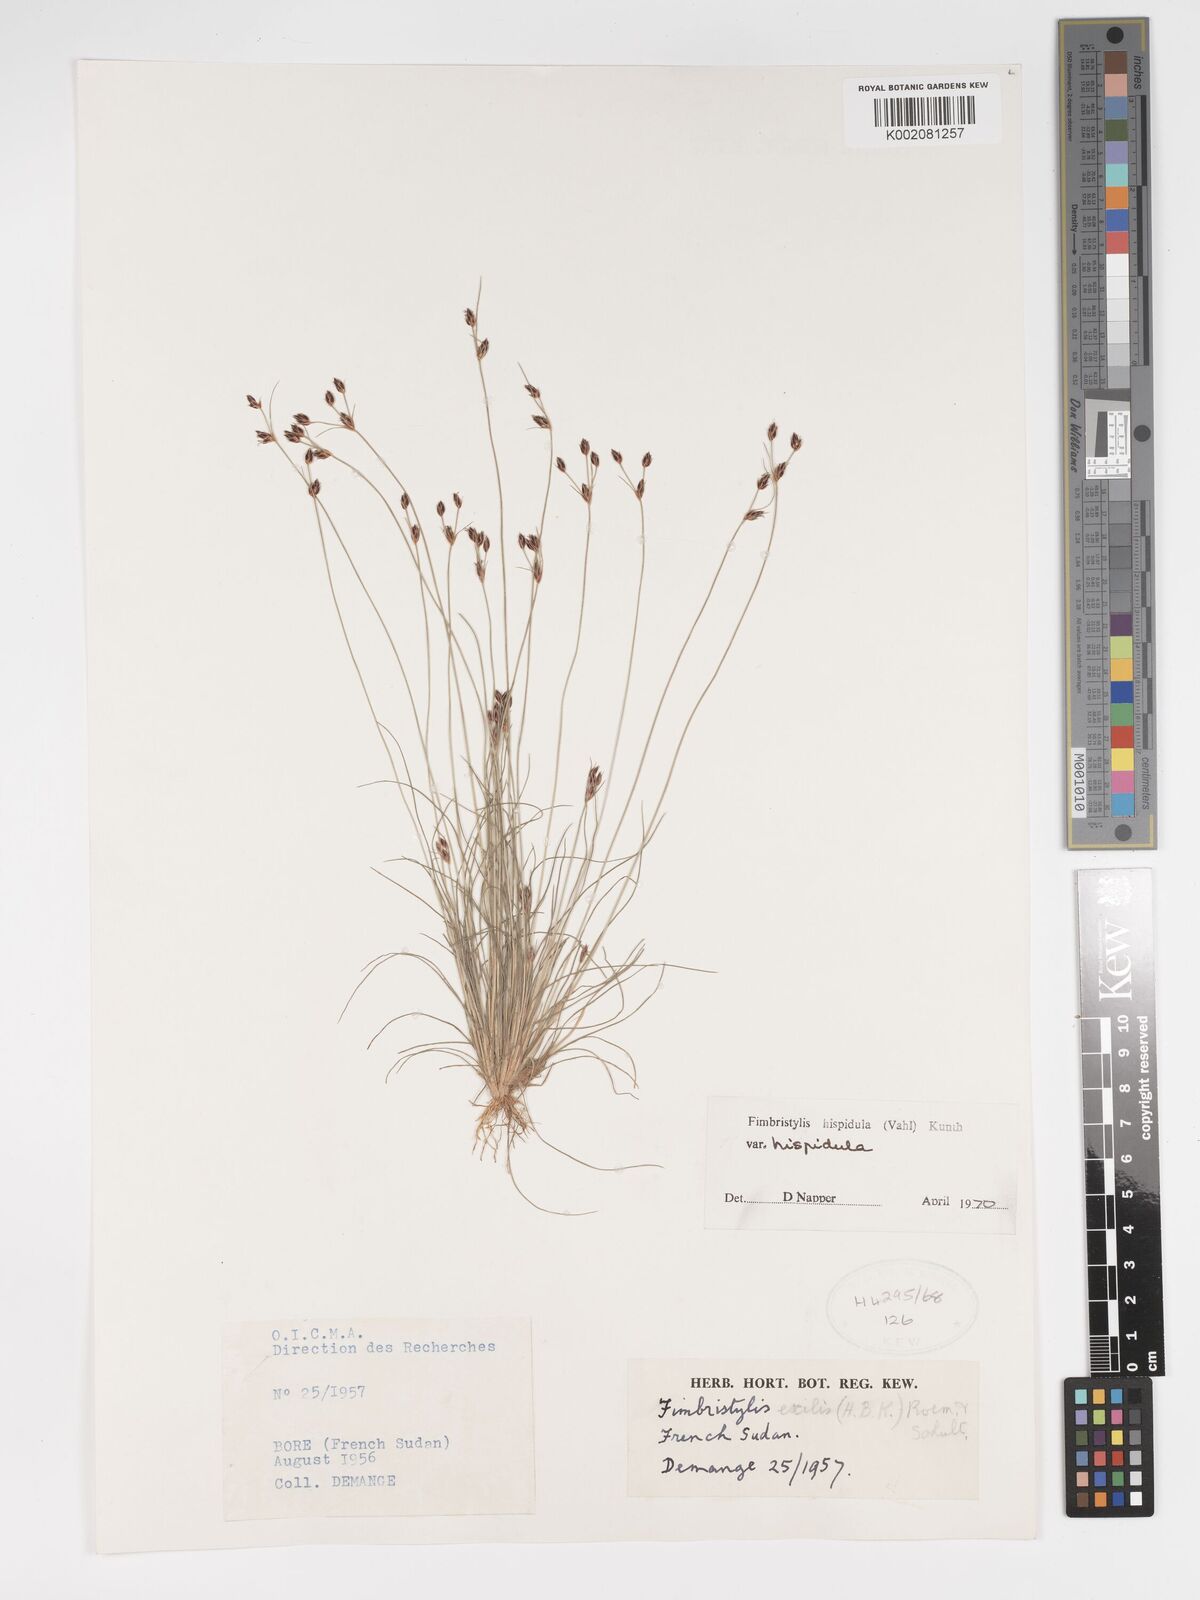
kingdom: Plantae
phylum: Tracheophyta
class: Liliopsida
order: Poales
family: Cyperaceae
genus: Bulbostylis
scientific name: Bulbostylis hispidula
